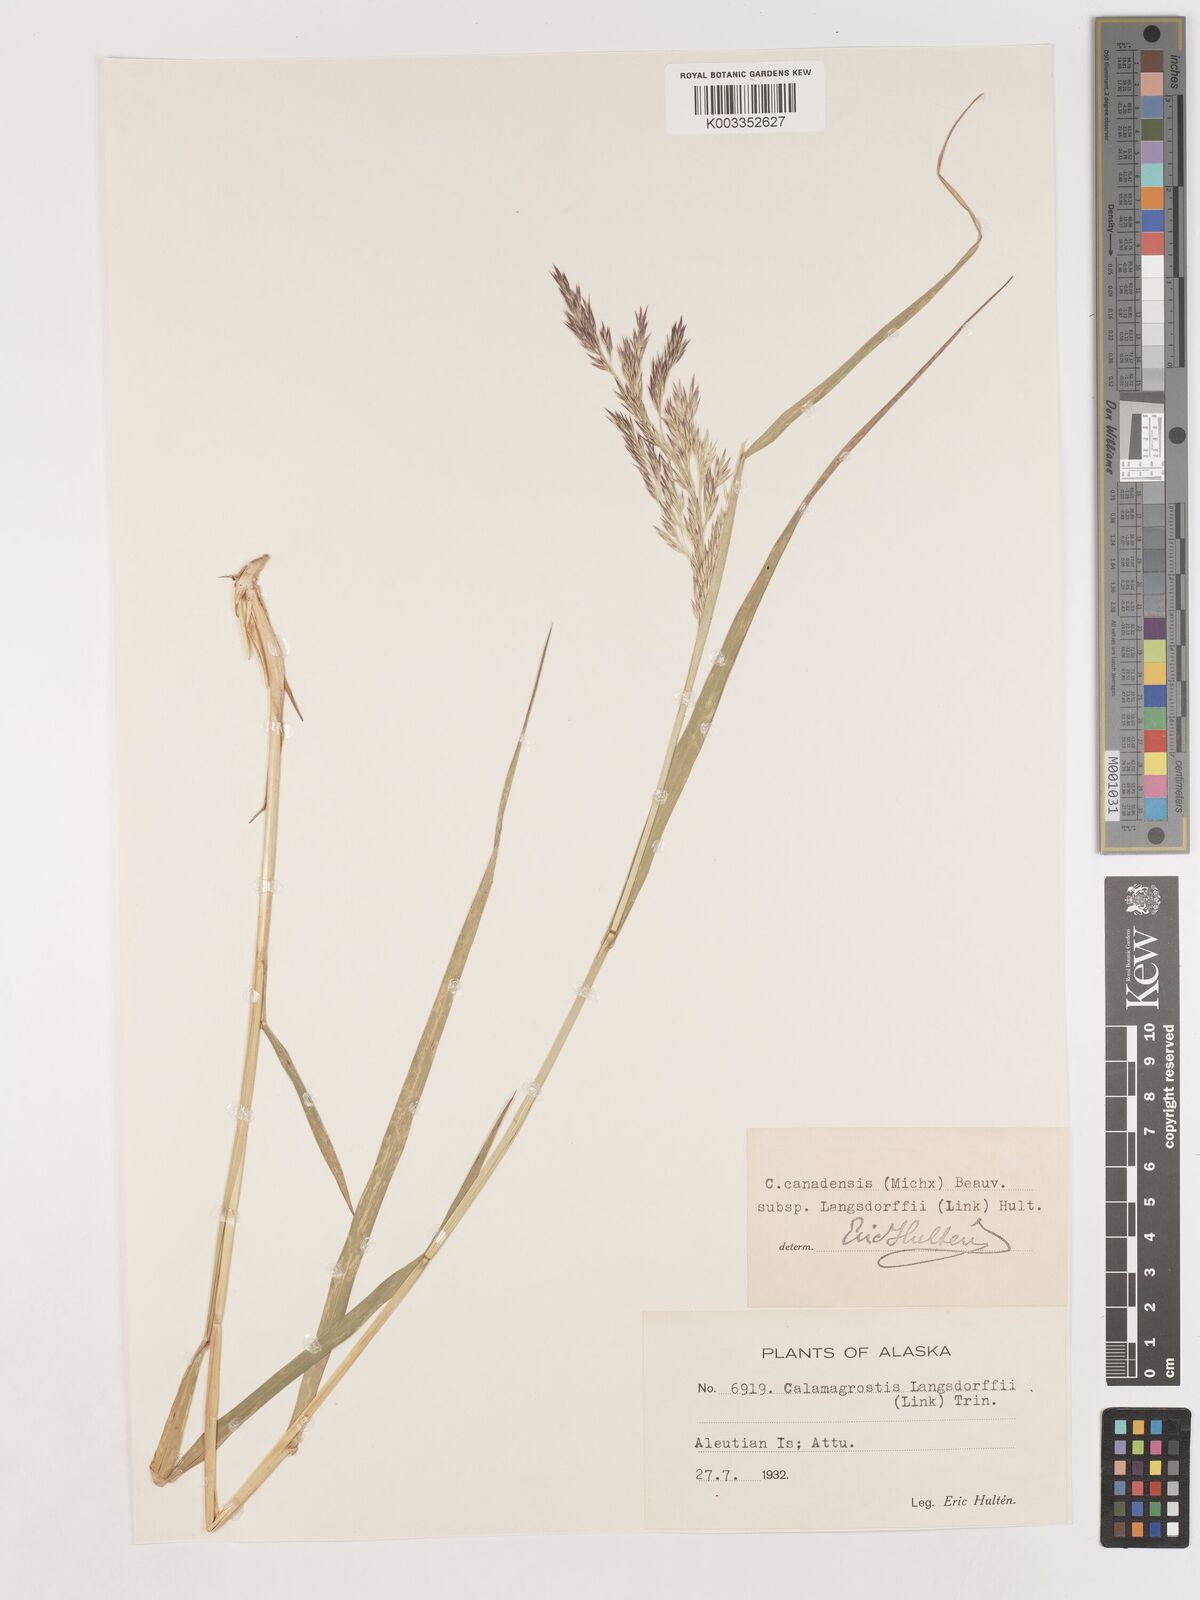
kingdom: Plantae
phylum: Tracheophyta
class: Liliopsida
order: Poales
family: Poaceae
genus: Calamagrostis
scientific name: Calamagrostis canadensis
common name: Canada bluejoint
